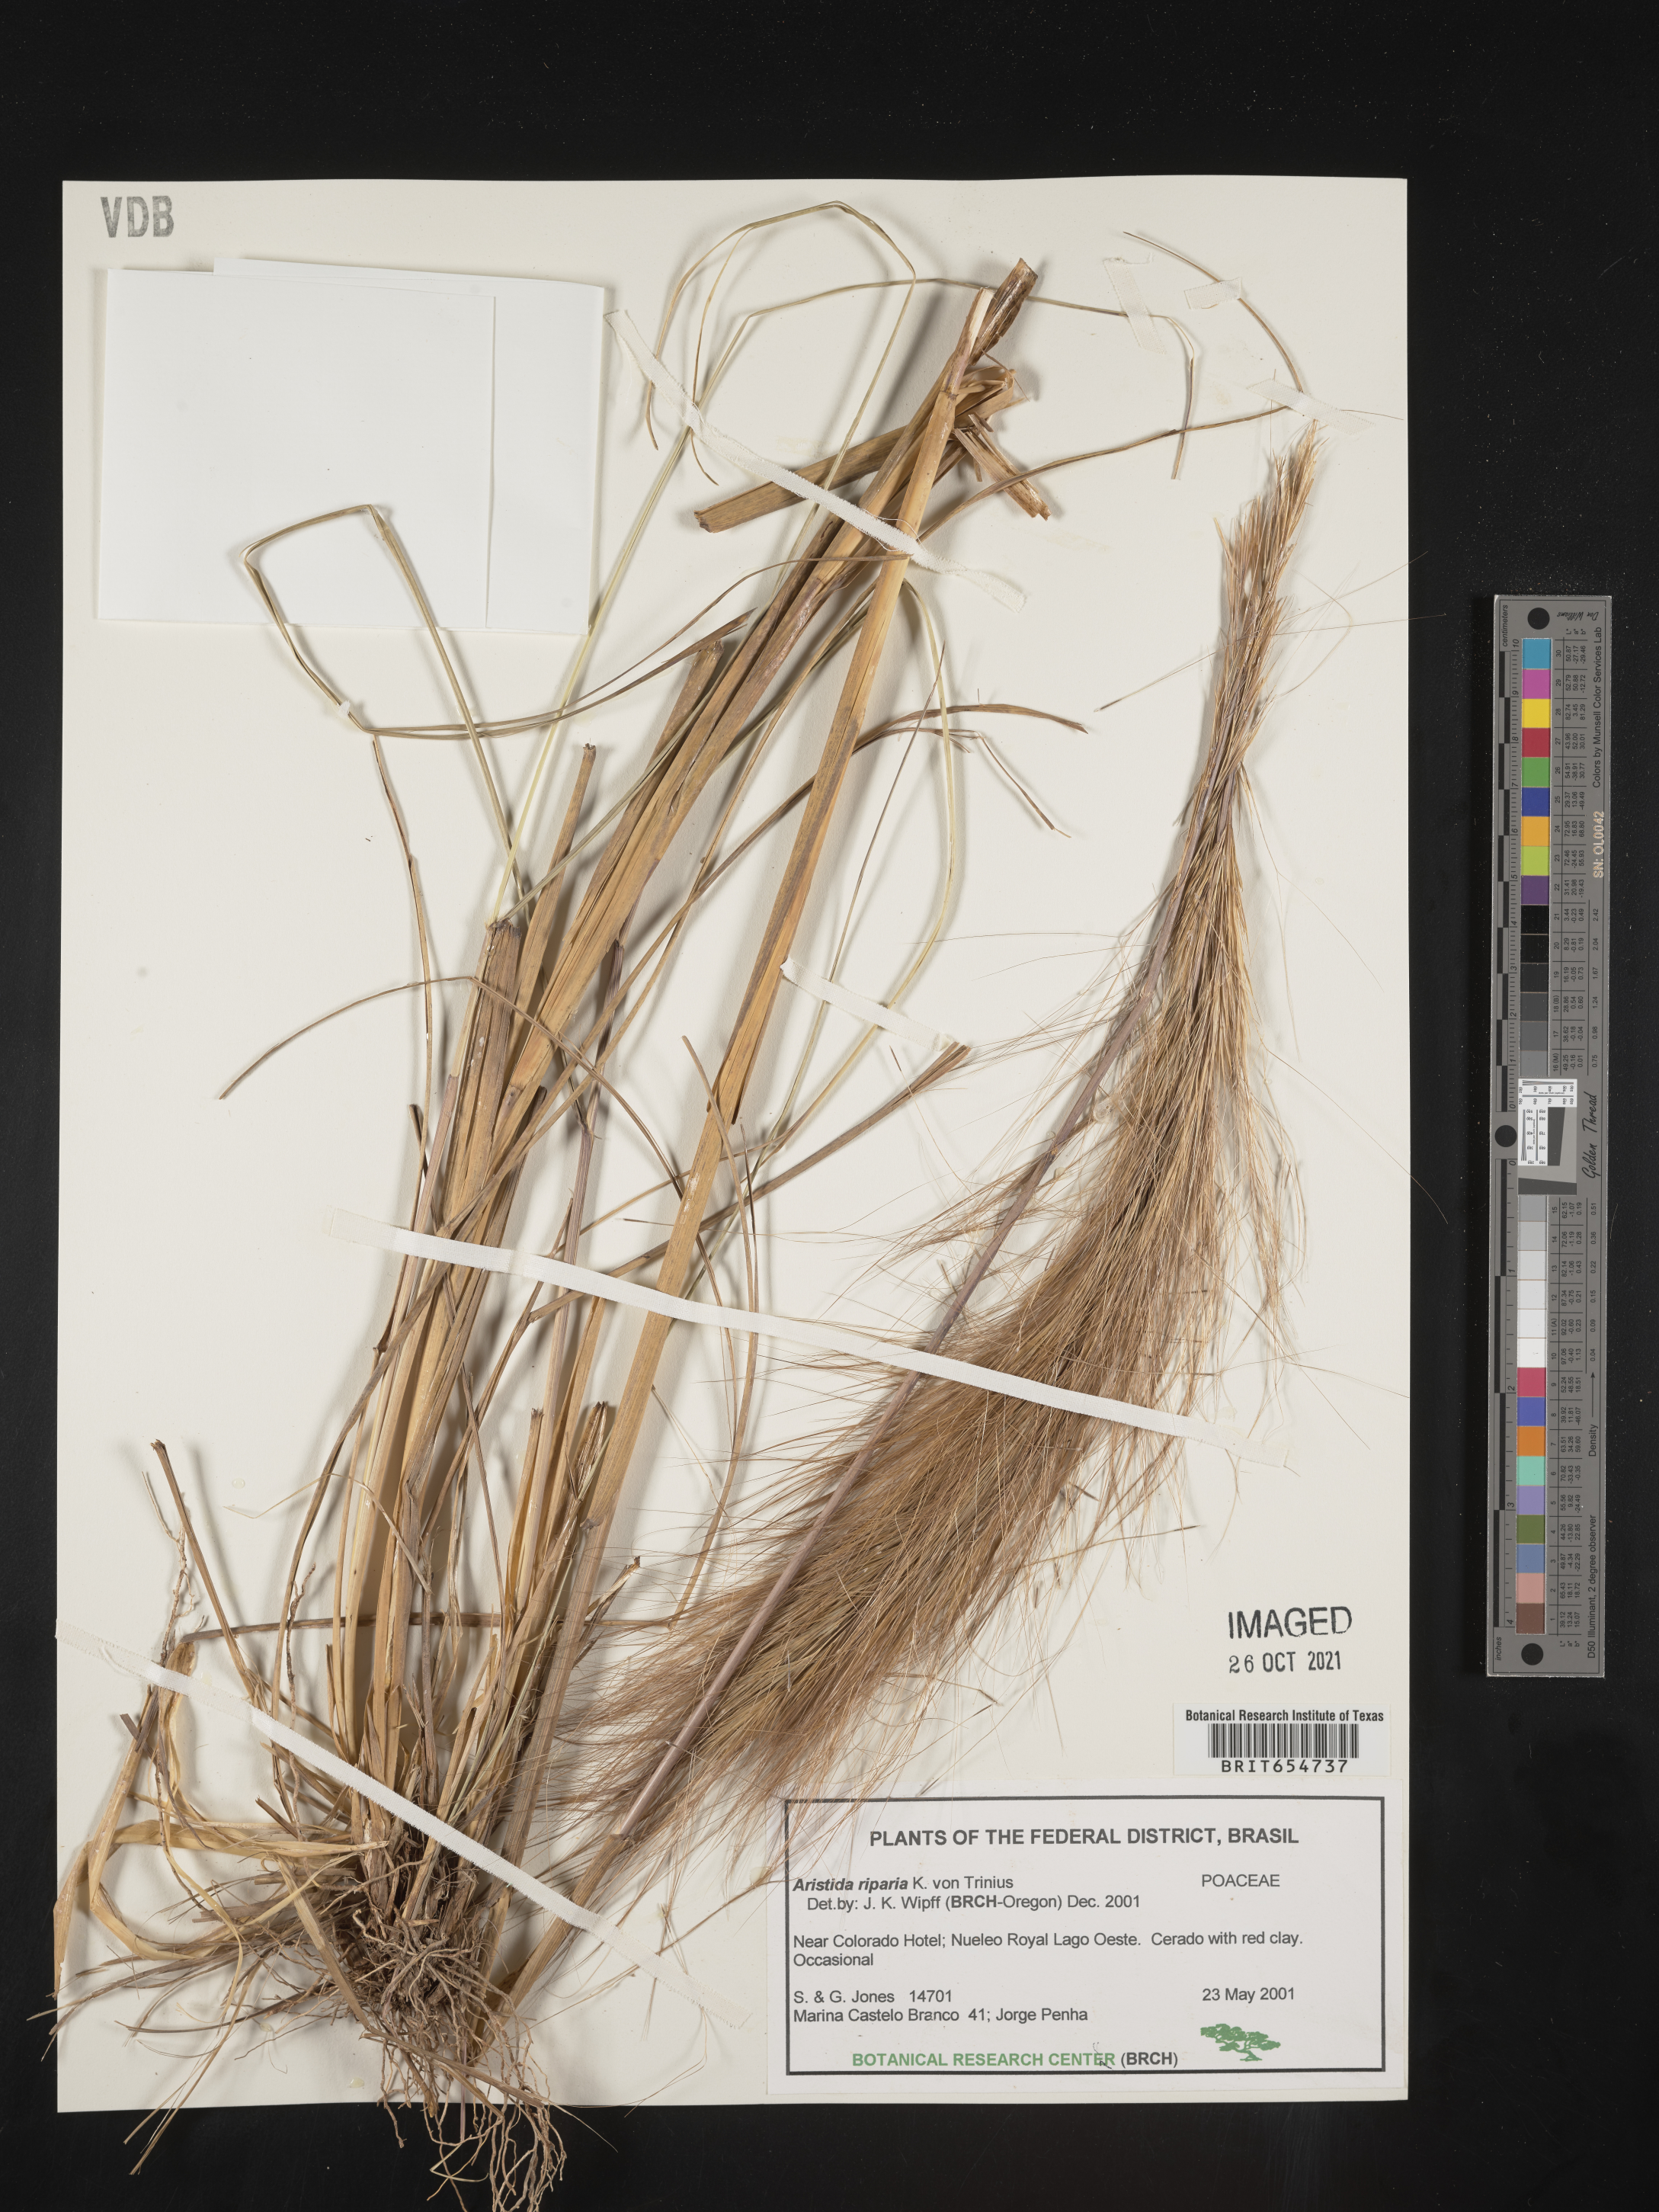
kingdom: Plantae
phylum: Tracheophyta
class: Liliopsida
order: Poales
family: Poaceae
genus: Aristida
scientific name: Aristida
